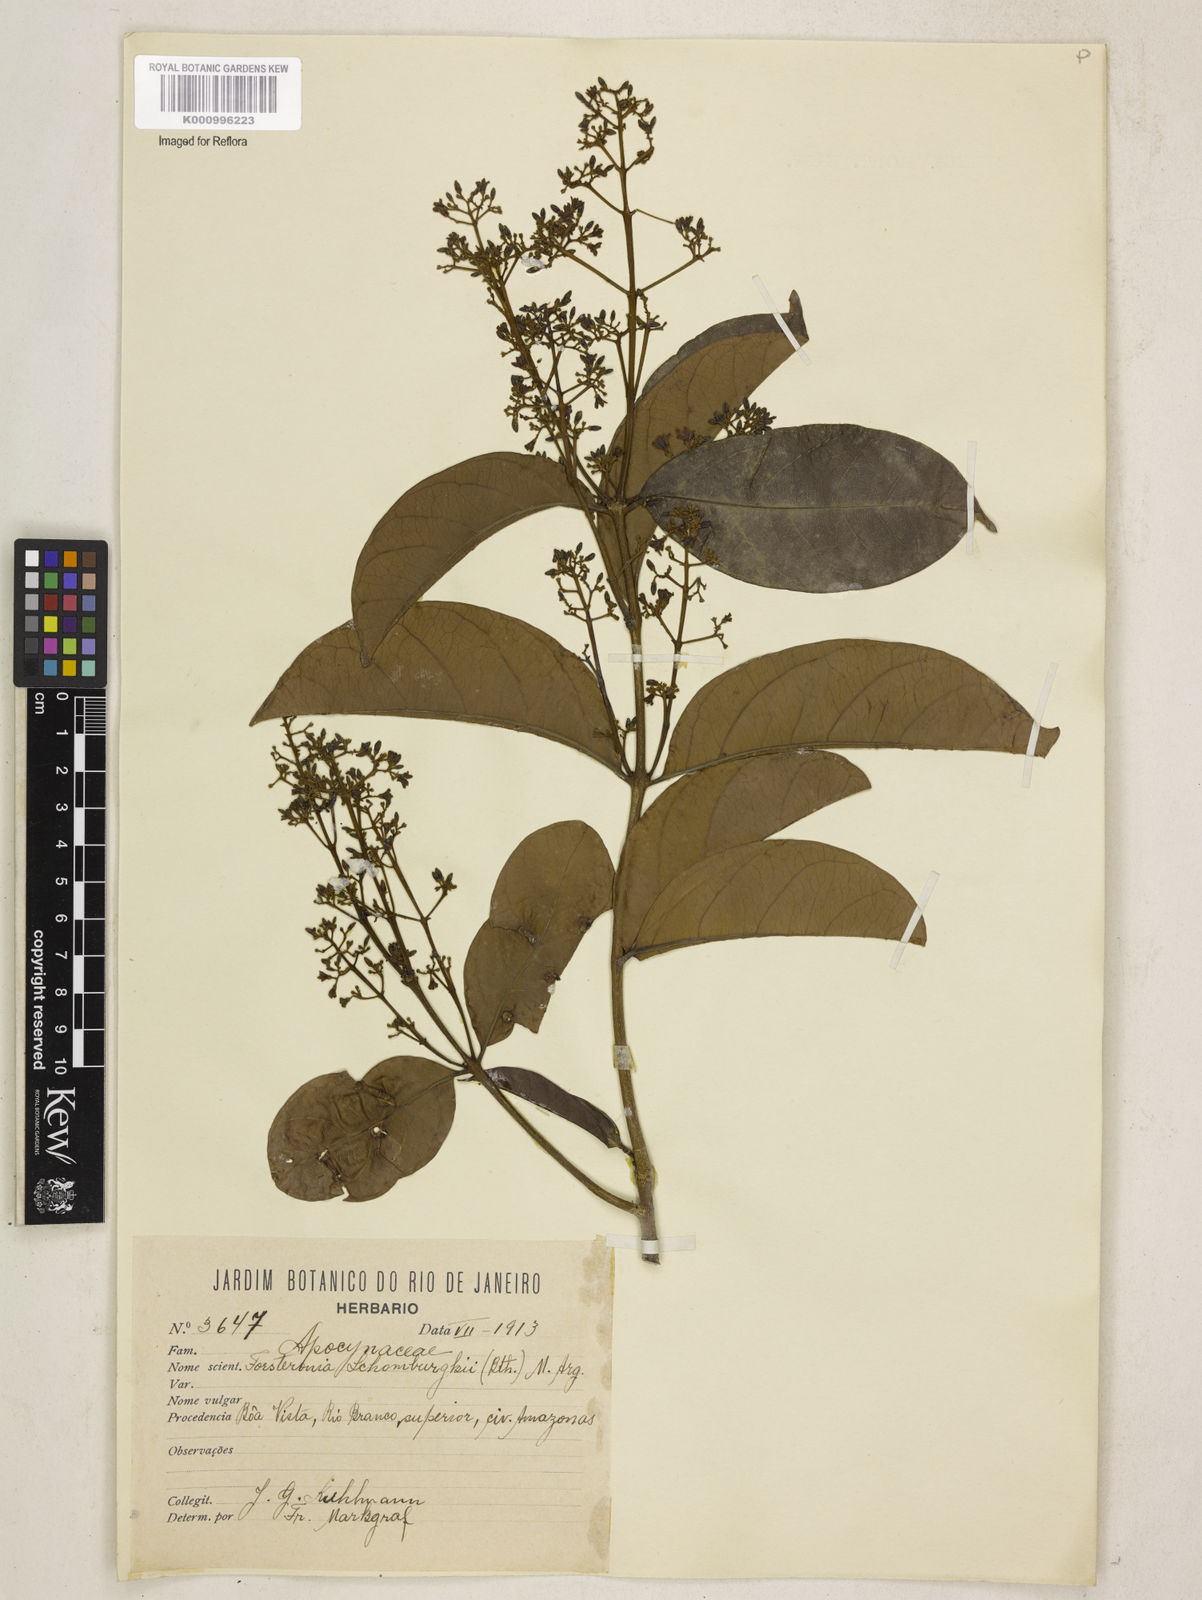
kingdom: Plantae
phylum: Tracheophyta
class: Magnoliopsida
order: Gentianales
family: Apocynaceae
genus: Forsteronia
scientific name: Forsteronia acouci
